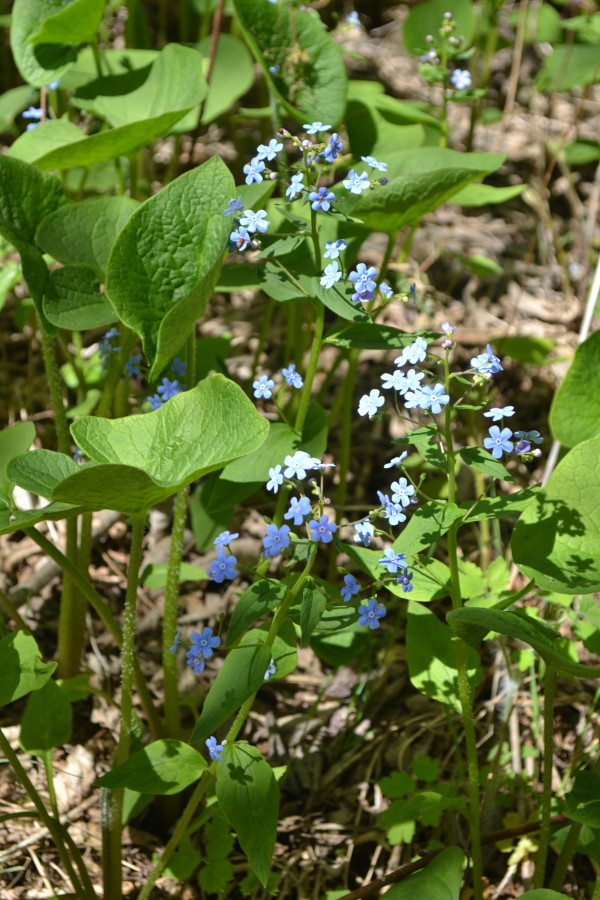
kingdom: Plantae
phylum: Tracheophyta
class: Magnoliopsida
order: Boraginales
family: Boraginaceae
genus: Brunnera
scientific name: Brunnera sibirica
